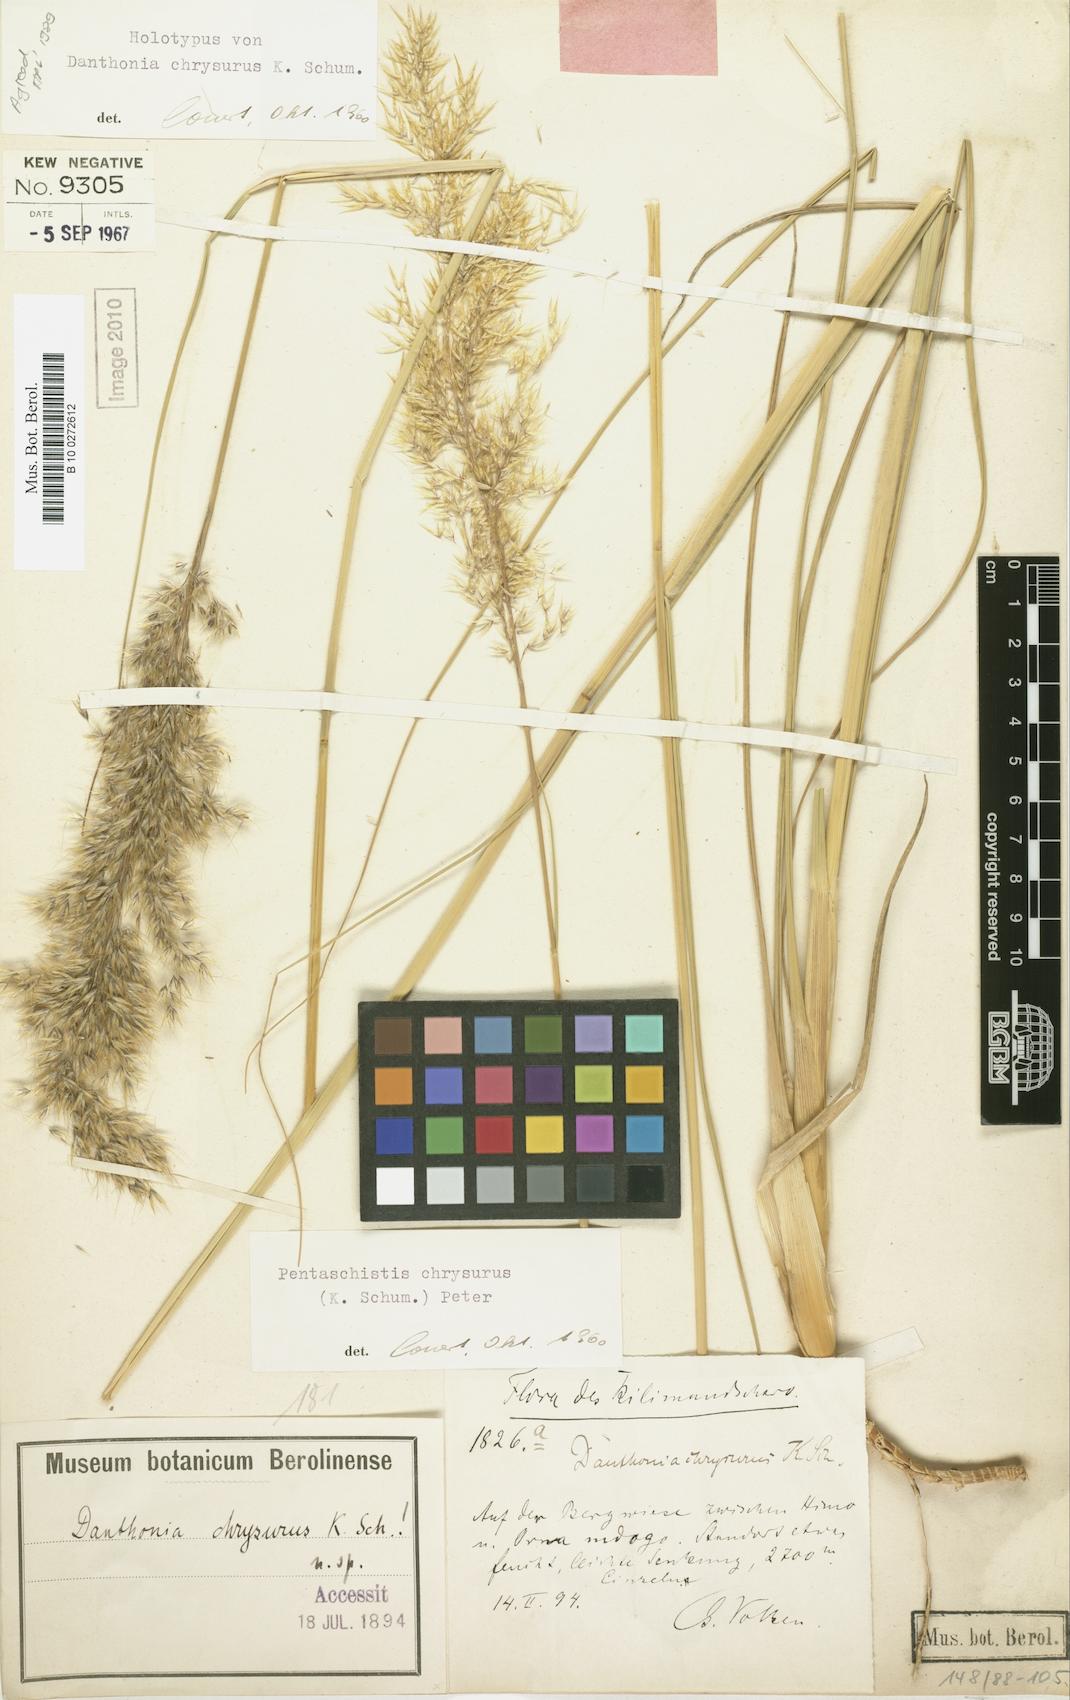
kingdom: Plantae
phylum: Tracheophyta
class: Liliopsida
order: Poales
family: Poaceae
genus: Pentameris
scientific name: Pentameris chrysurus
